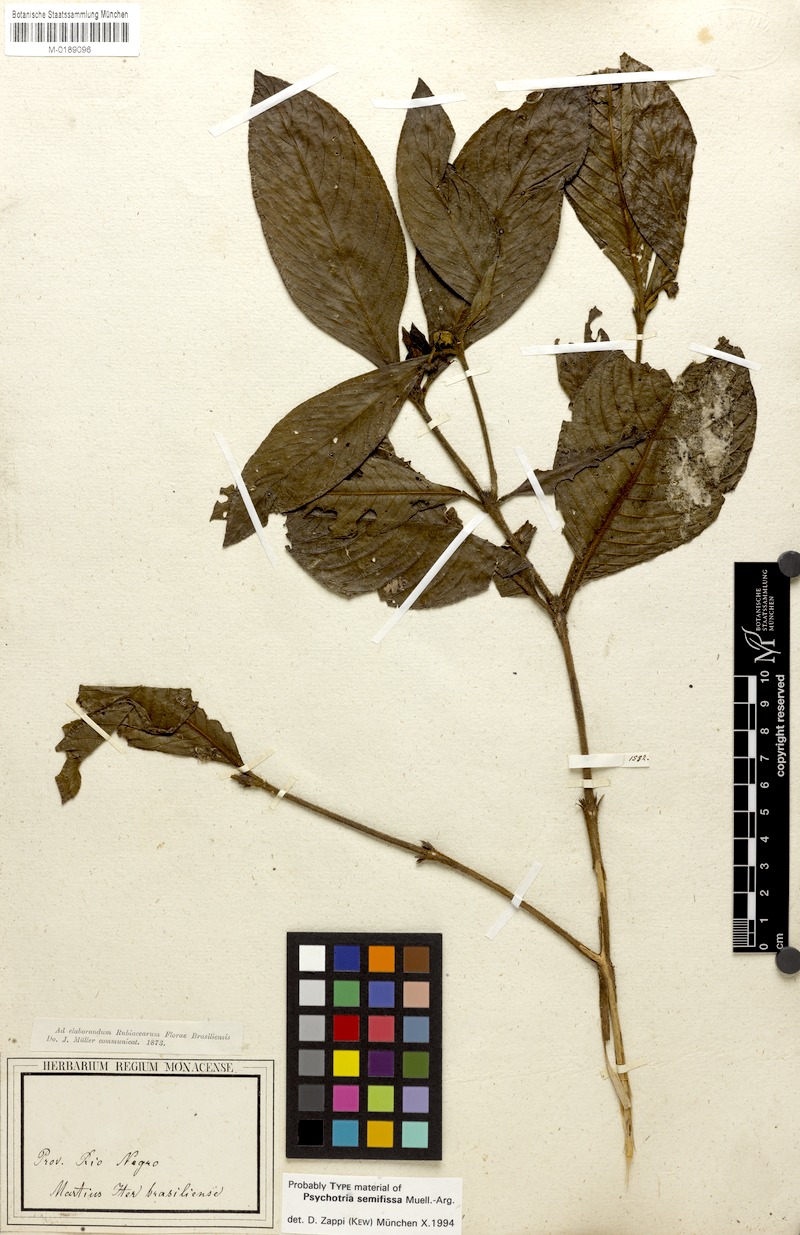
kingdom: Plantae
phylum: Tracheophyta
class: Magnoliopsida
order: Gentianales
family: Rubiaceae
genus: Psychotria
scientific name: Psychotria semifissa
